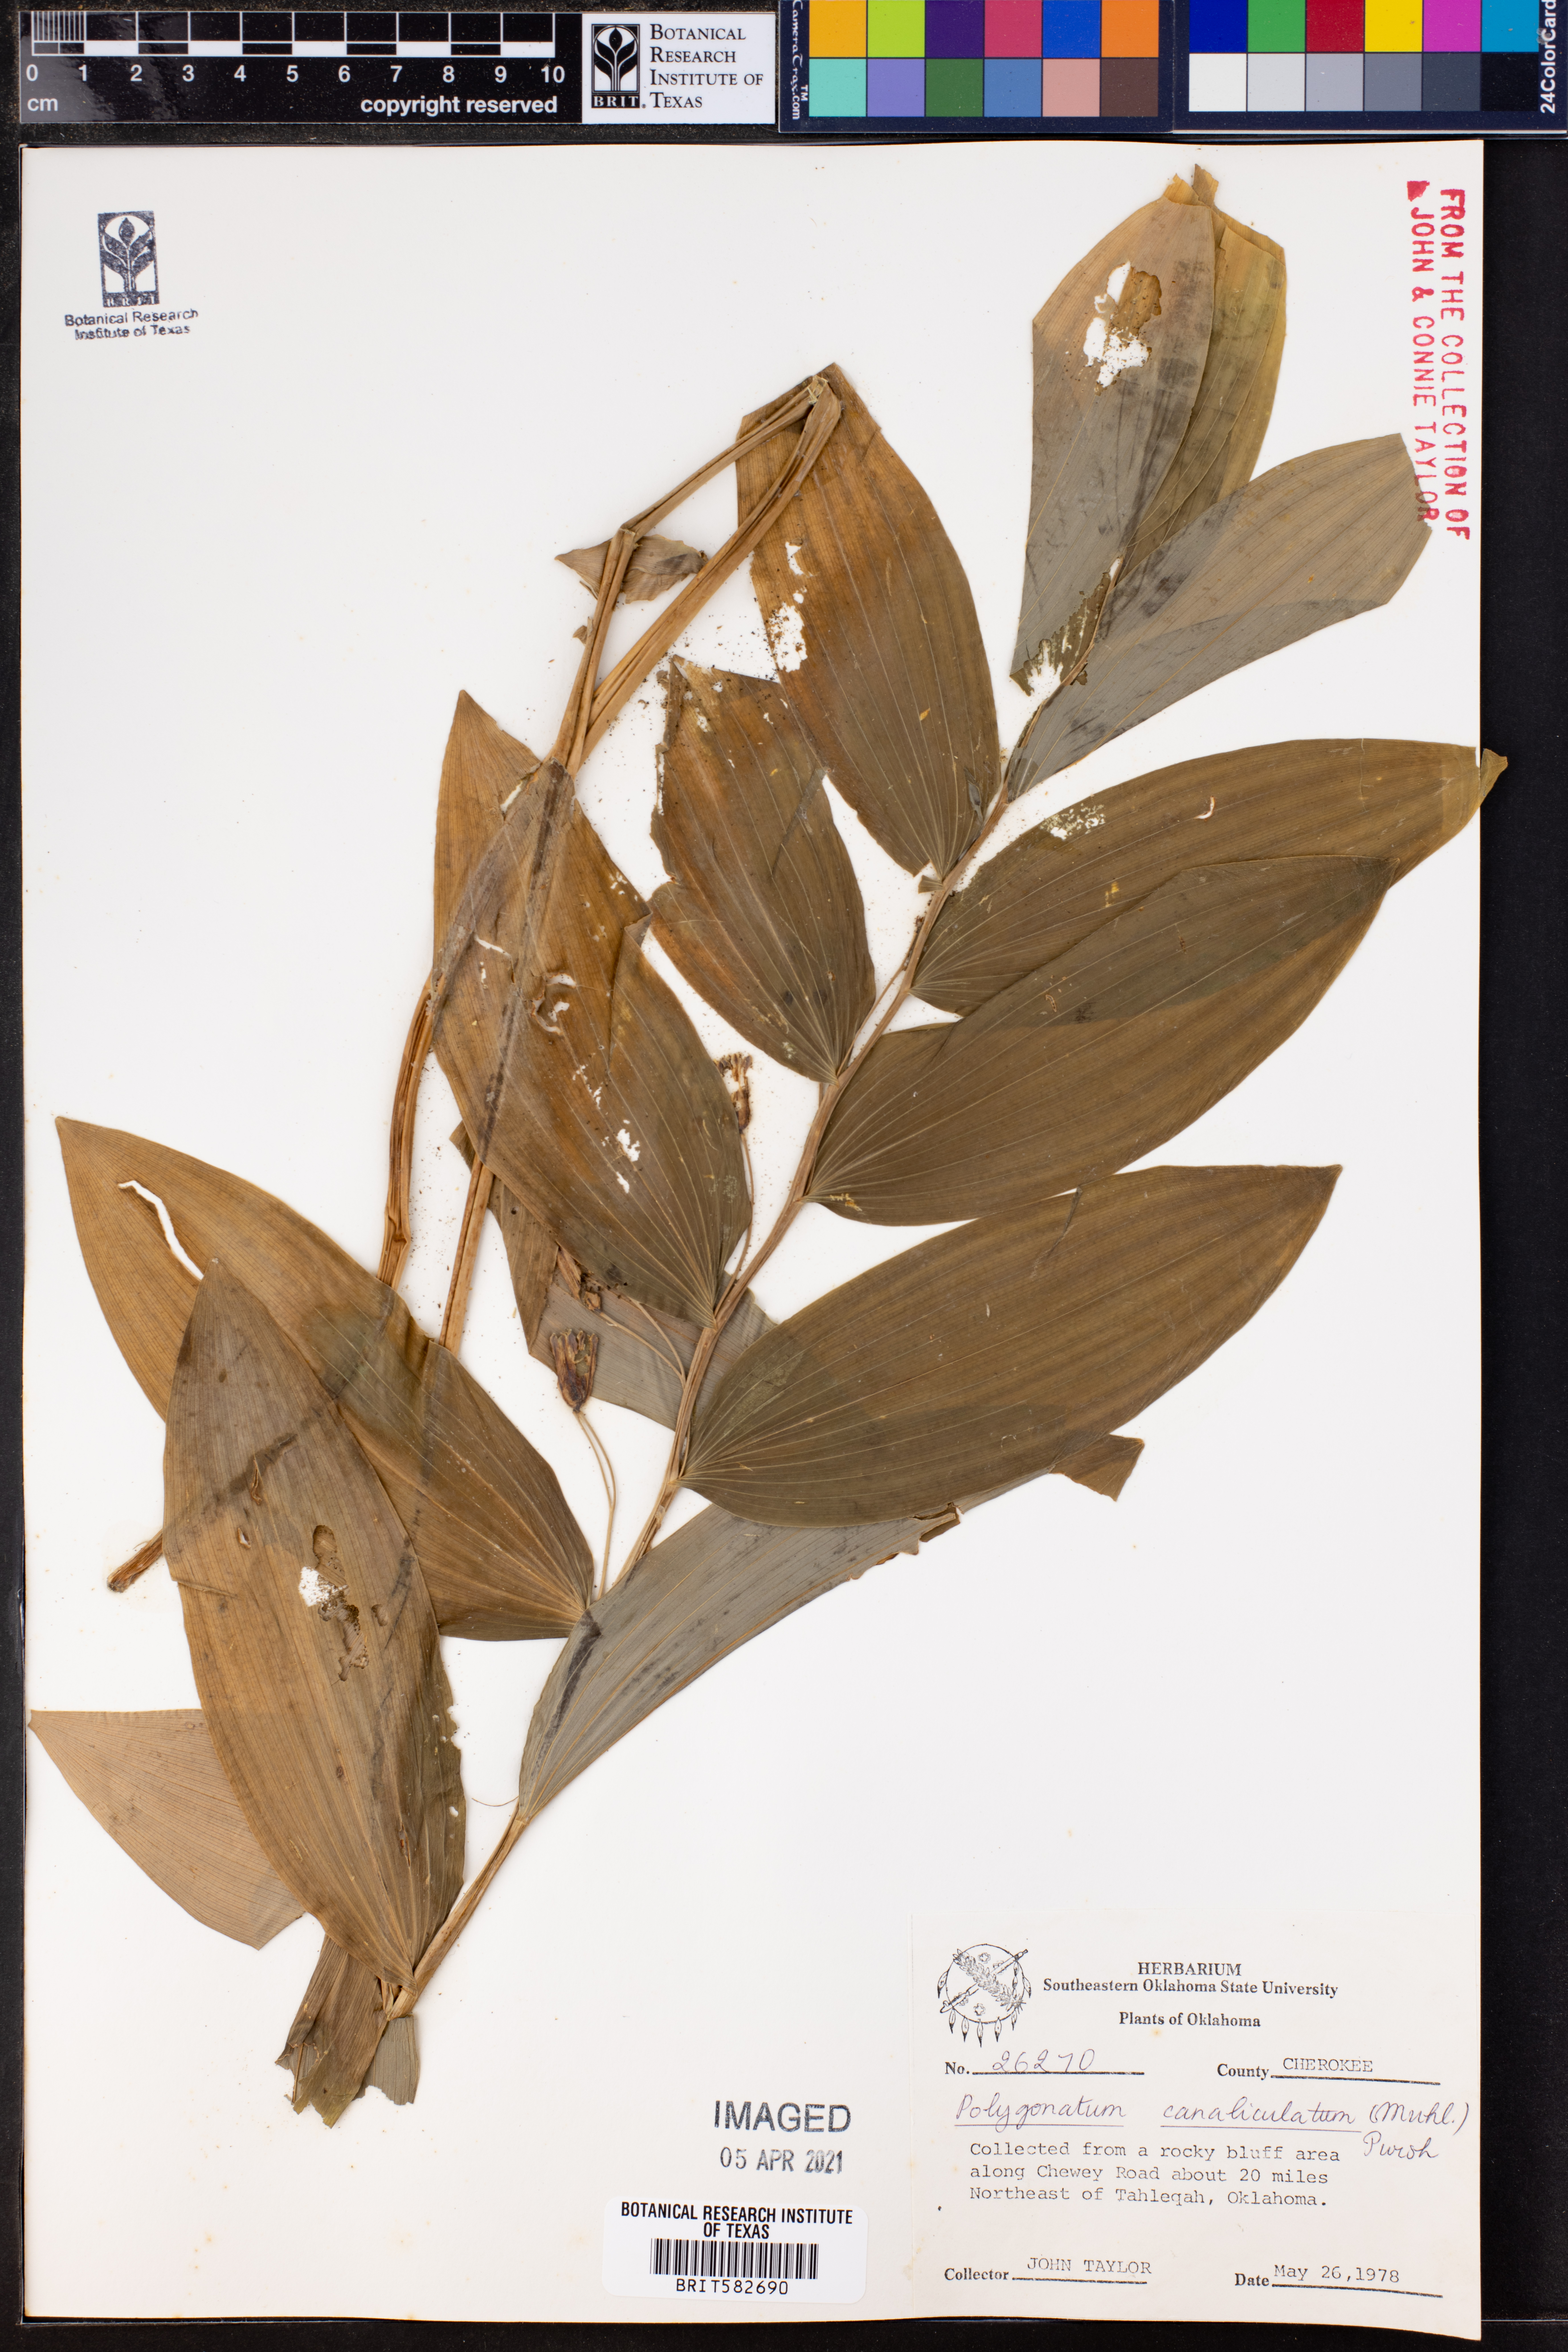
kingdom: Plantae
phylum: Tracheophyta
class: Liliopsida
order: Asparagales
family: Asparagaceae
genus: Polygonatum
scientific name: Polygonatum biflorum
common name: American solomon's-seal
